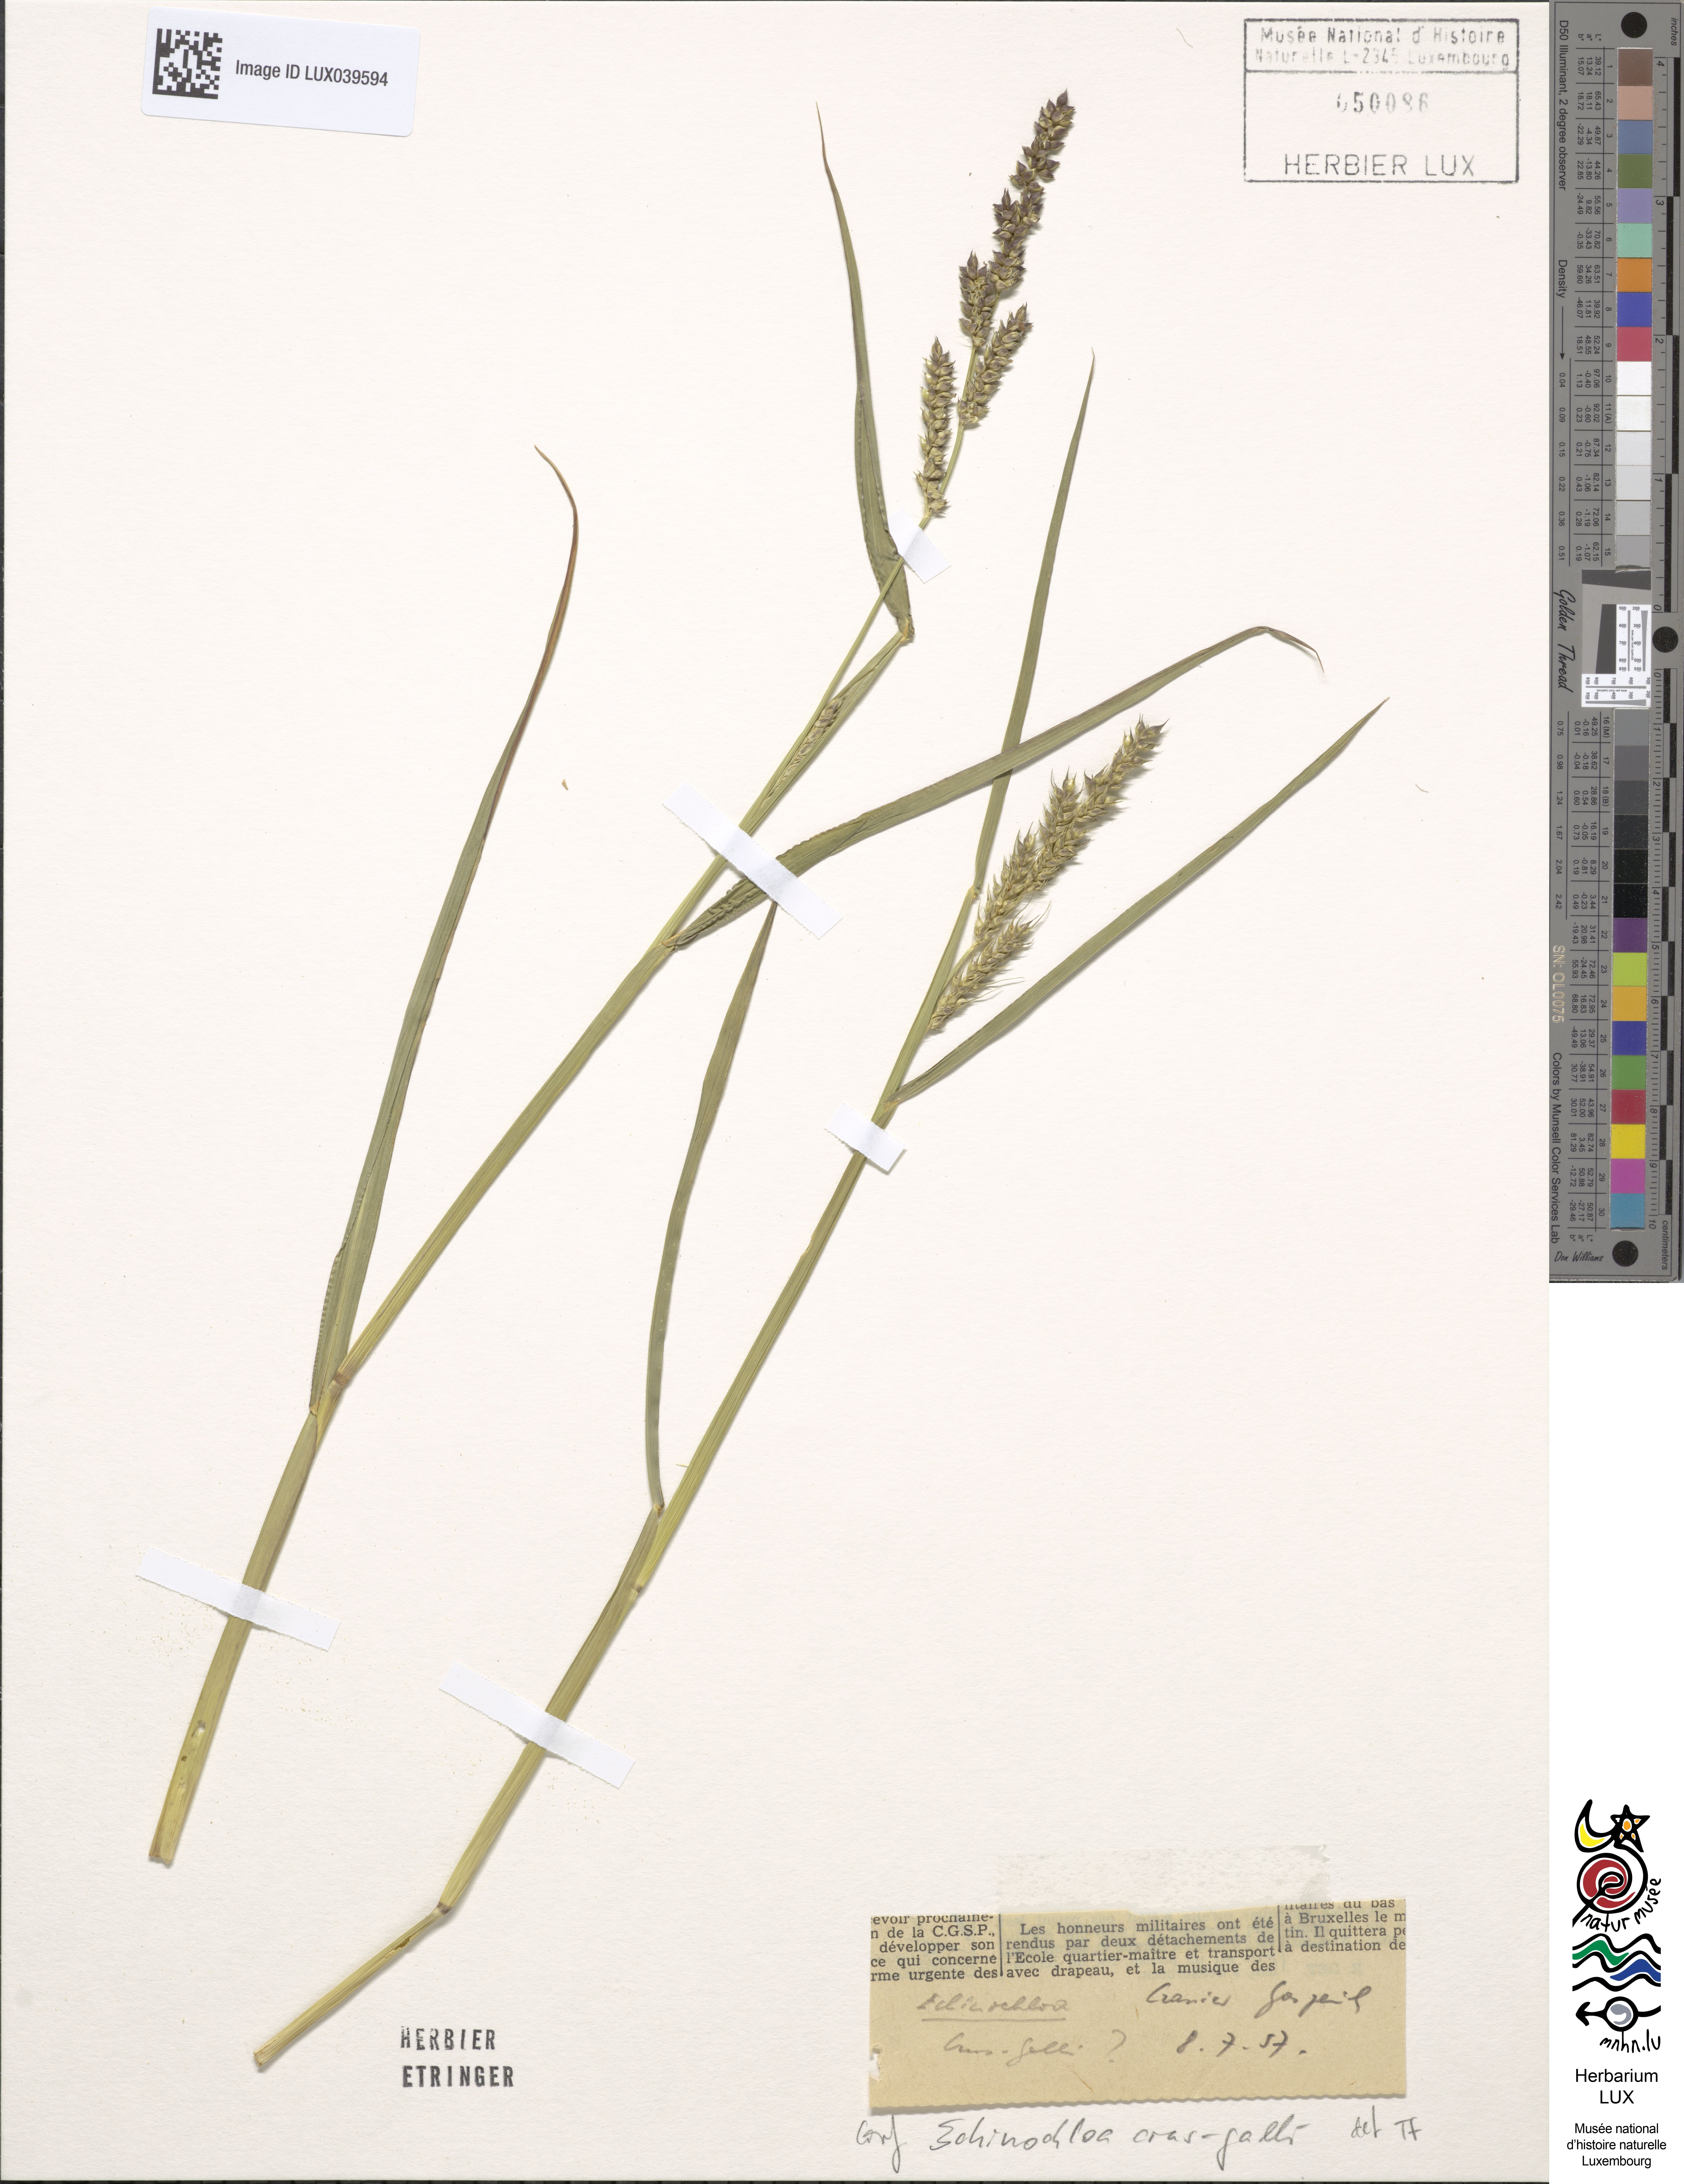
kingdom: Plantae
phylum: Tracheophyta
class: Liliopsida
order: Poales
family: Poaceae
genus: Echinochloa
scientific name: Echinochloa crus-galli
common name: Cockspur
